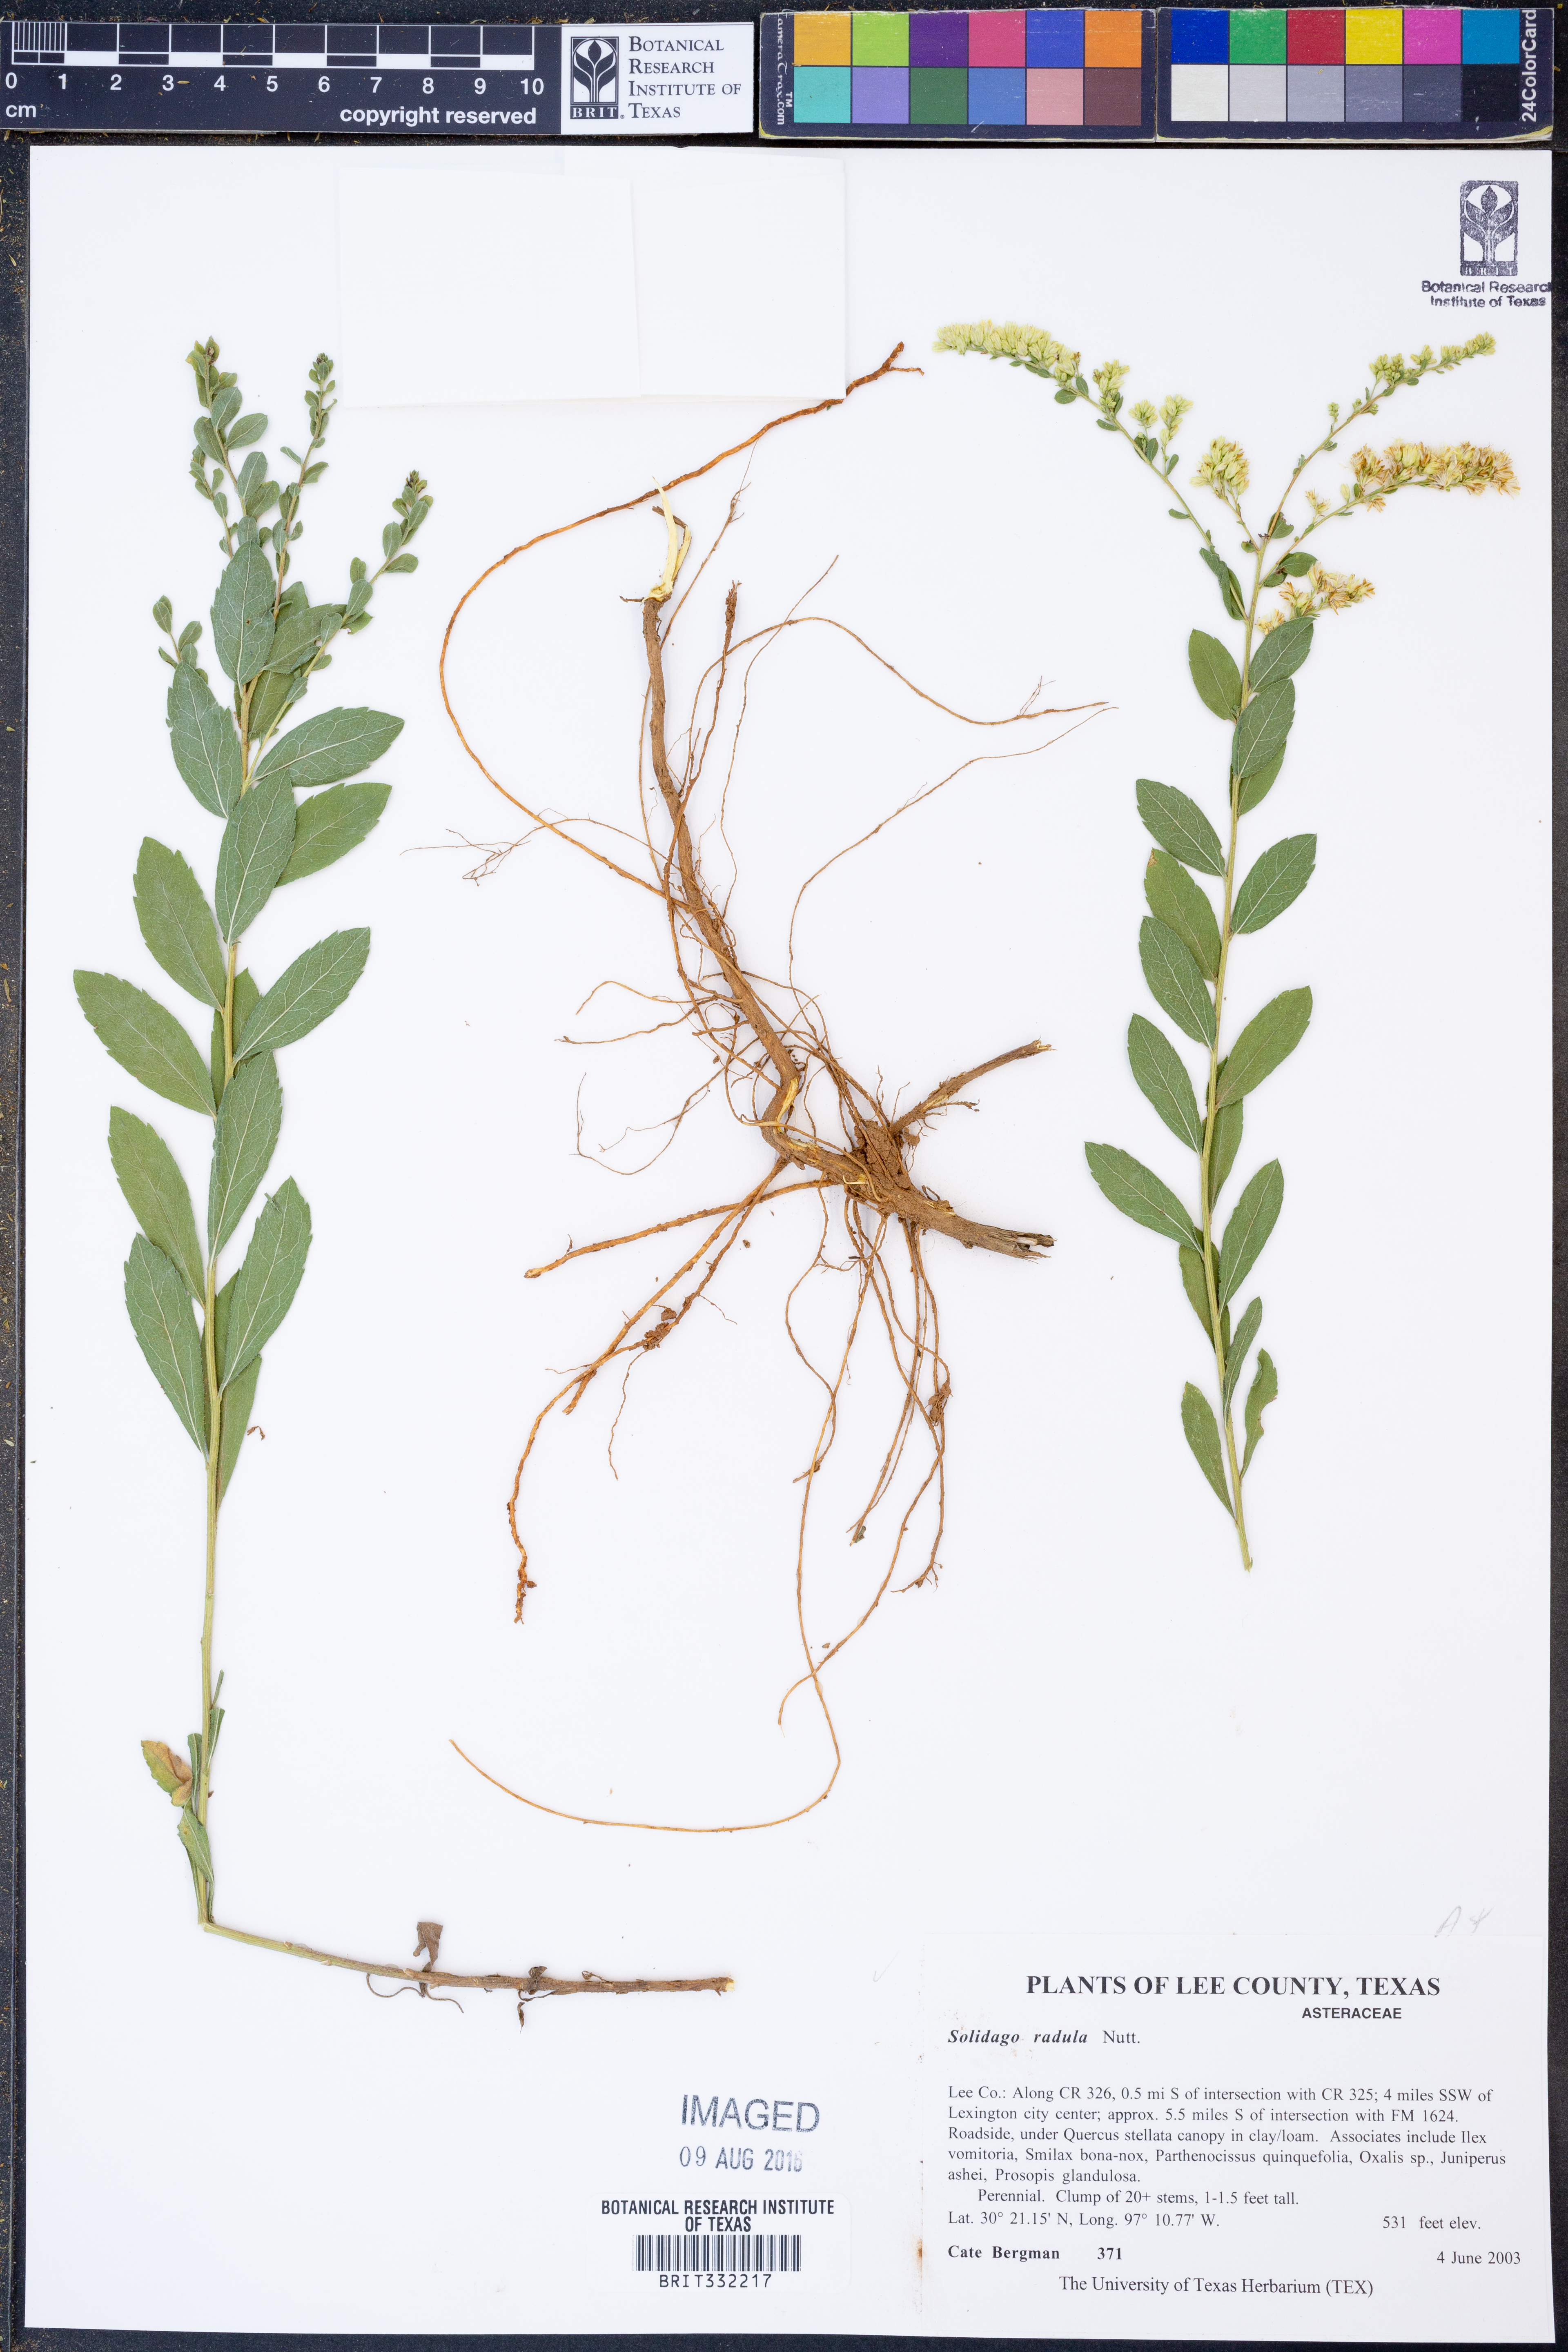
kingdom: Plantae
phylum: Tracheophyta
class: Magnoliopsida
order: Asterales
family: Asteraceae
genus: Solidago
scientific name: Solidago radula
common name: Western rough goldenrod
